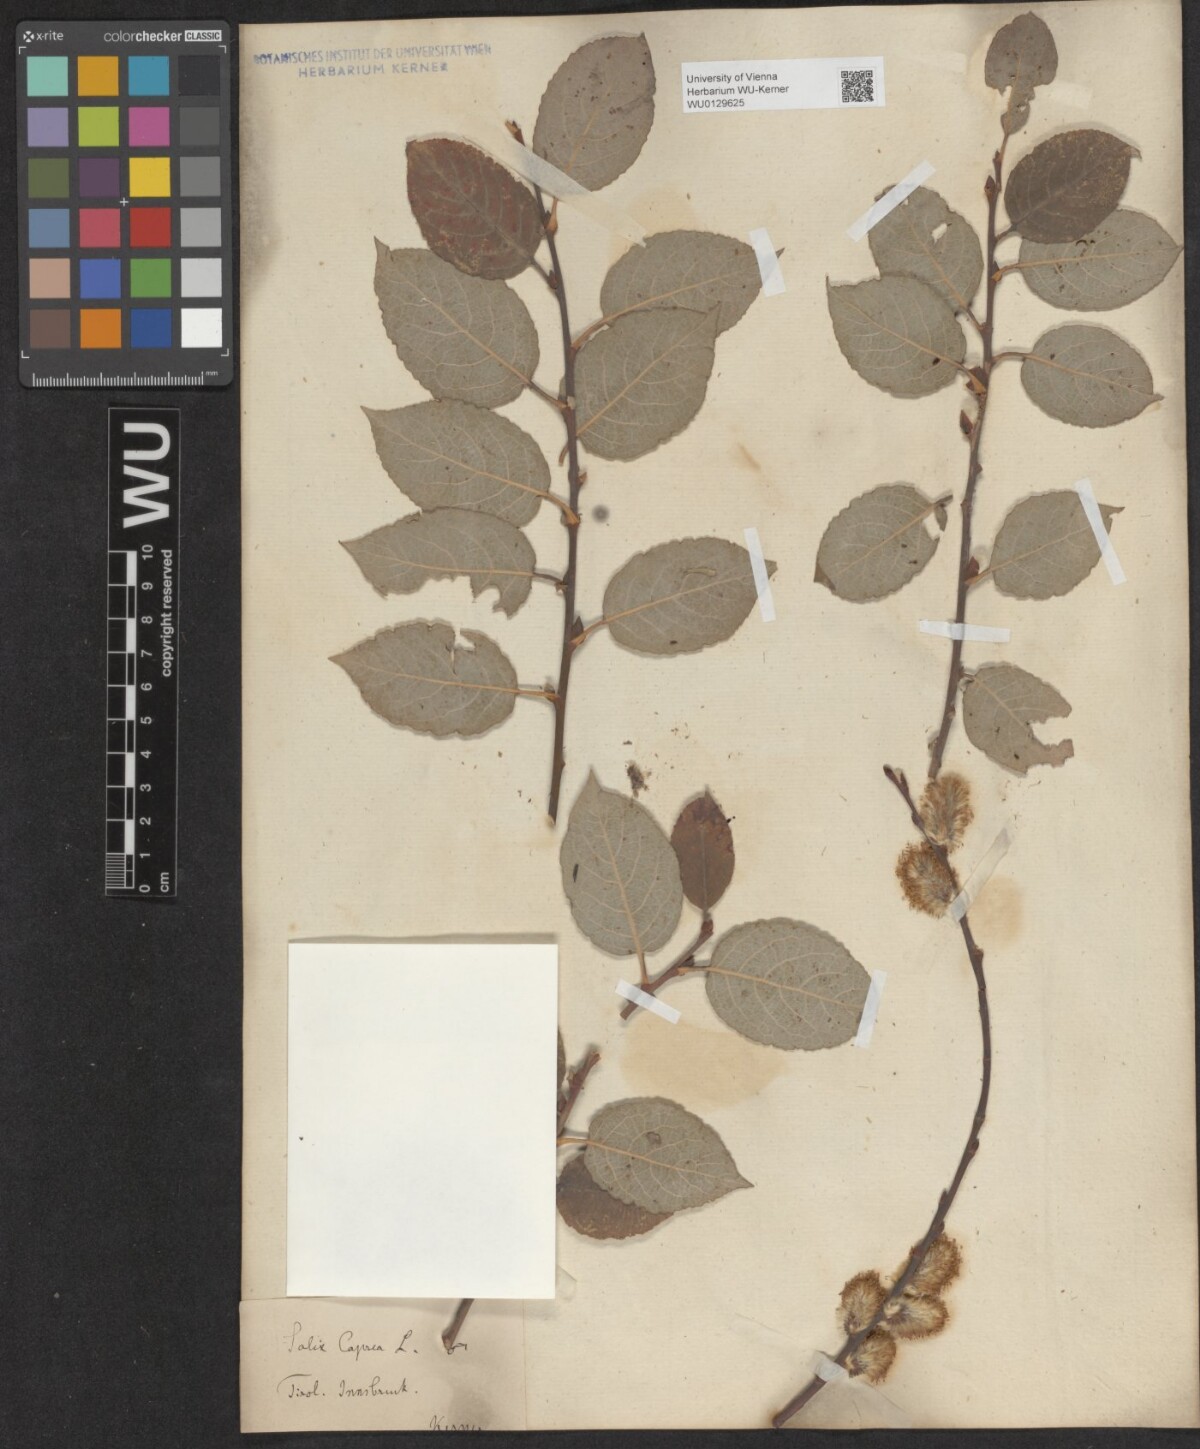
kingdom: Plantae
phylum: Tracheophyta
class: Magnoliopsida
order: Malpighiales
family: Salicaceae
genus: Salix
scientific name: Salix caprea
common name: Goat willow
